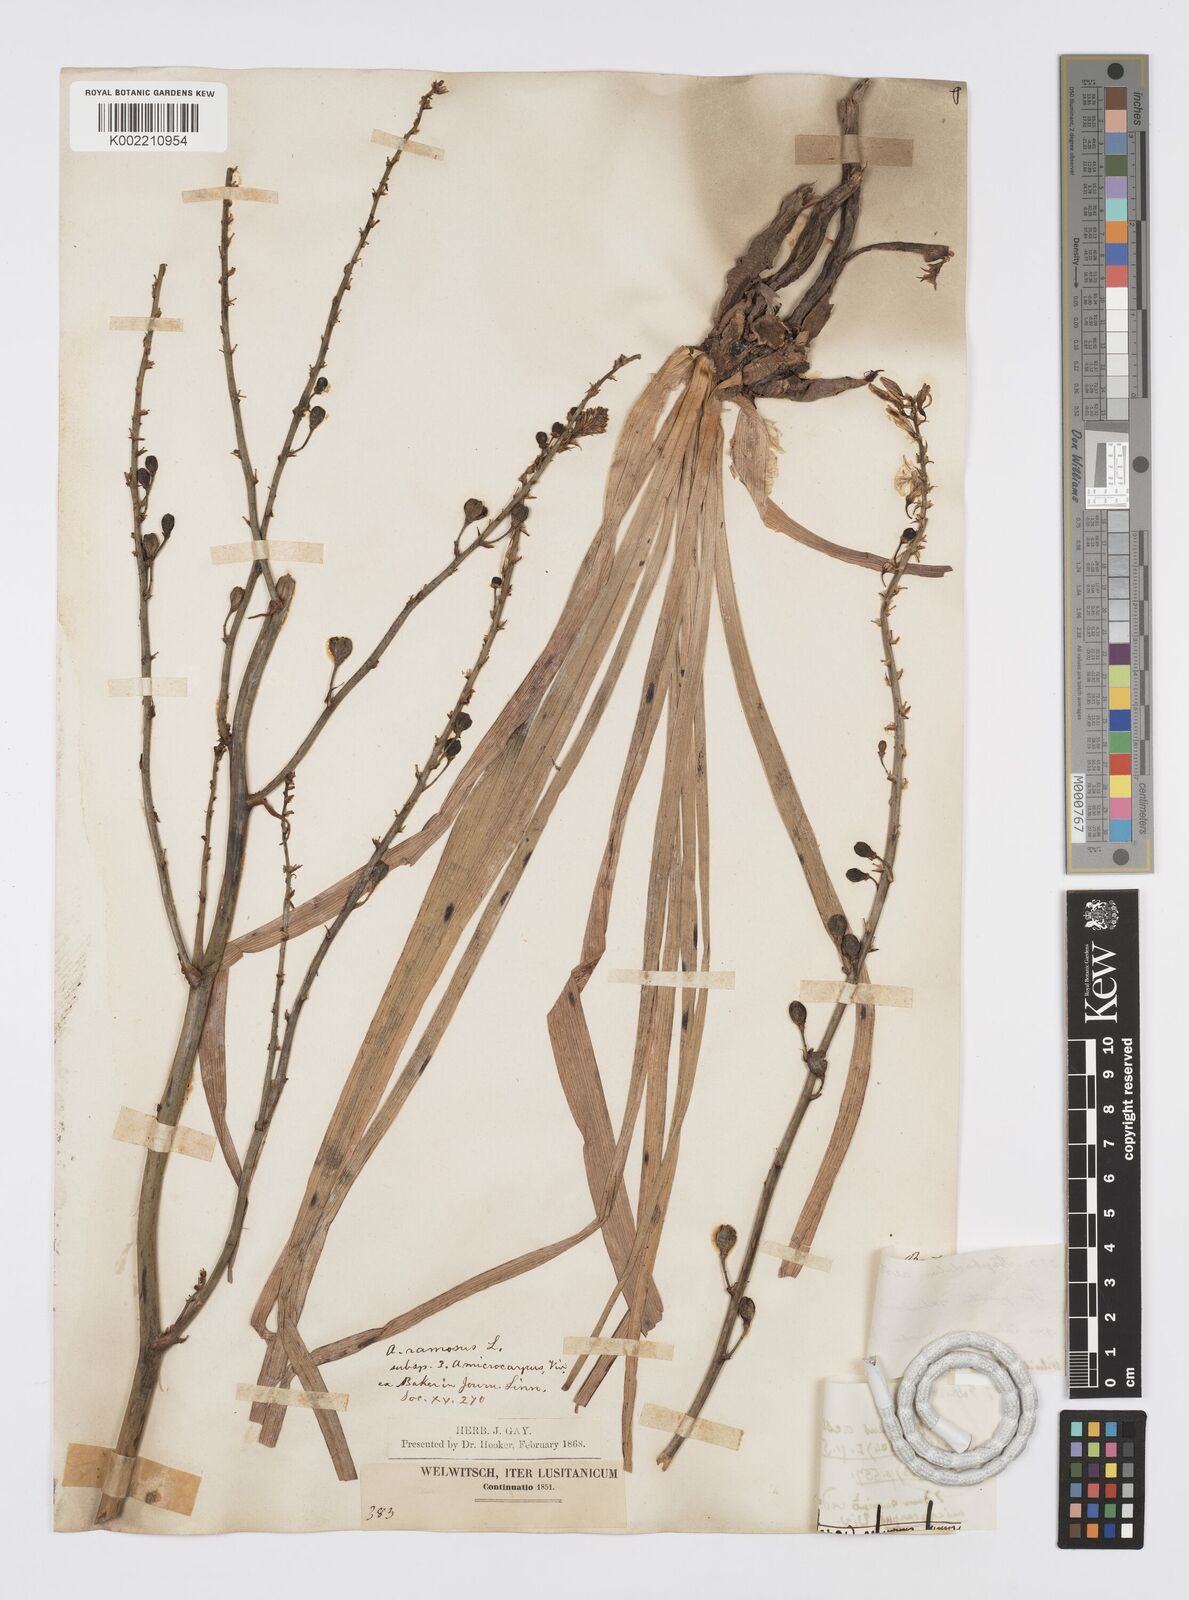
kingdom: Plantae
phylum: Tracheophyta
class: Liliopsida
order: Asparagales
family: Asphodelaceae
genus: Asphodelus
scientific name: Asphodelus ramosus
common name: Silverrod
